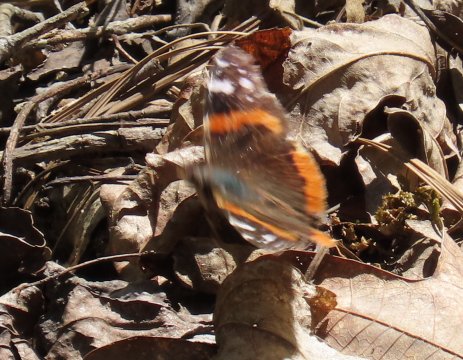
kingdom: Animalia
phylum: Arthropoda
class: Insecta
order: Lepidoptera
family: Nymphalidae
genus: Vanessa
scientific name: Vanessa atalanta
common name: Red Admiral
